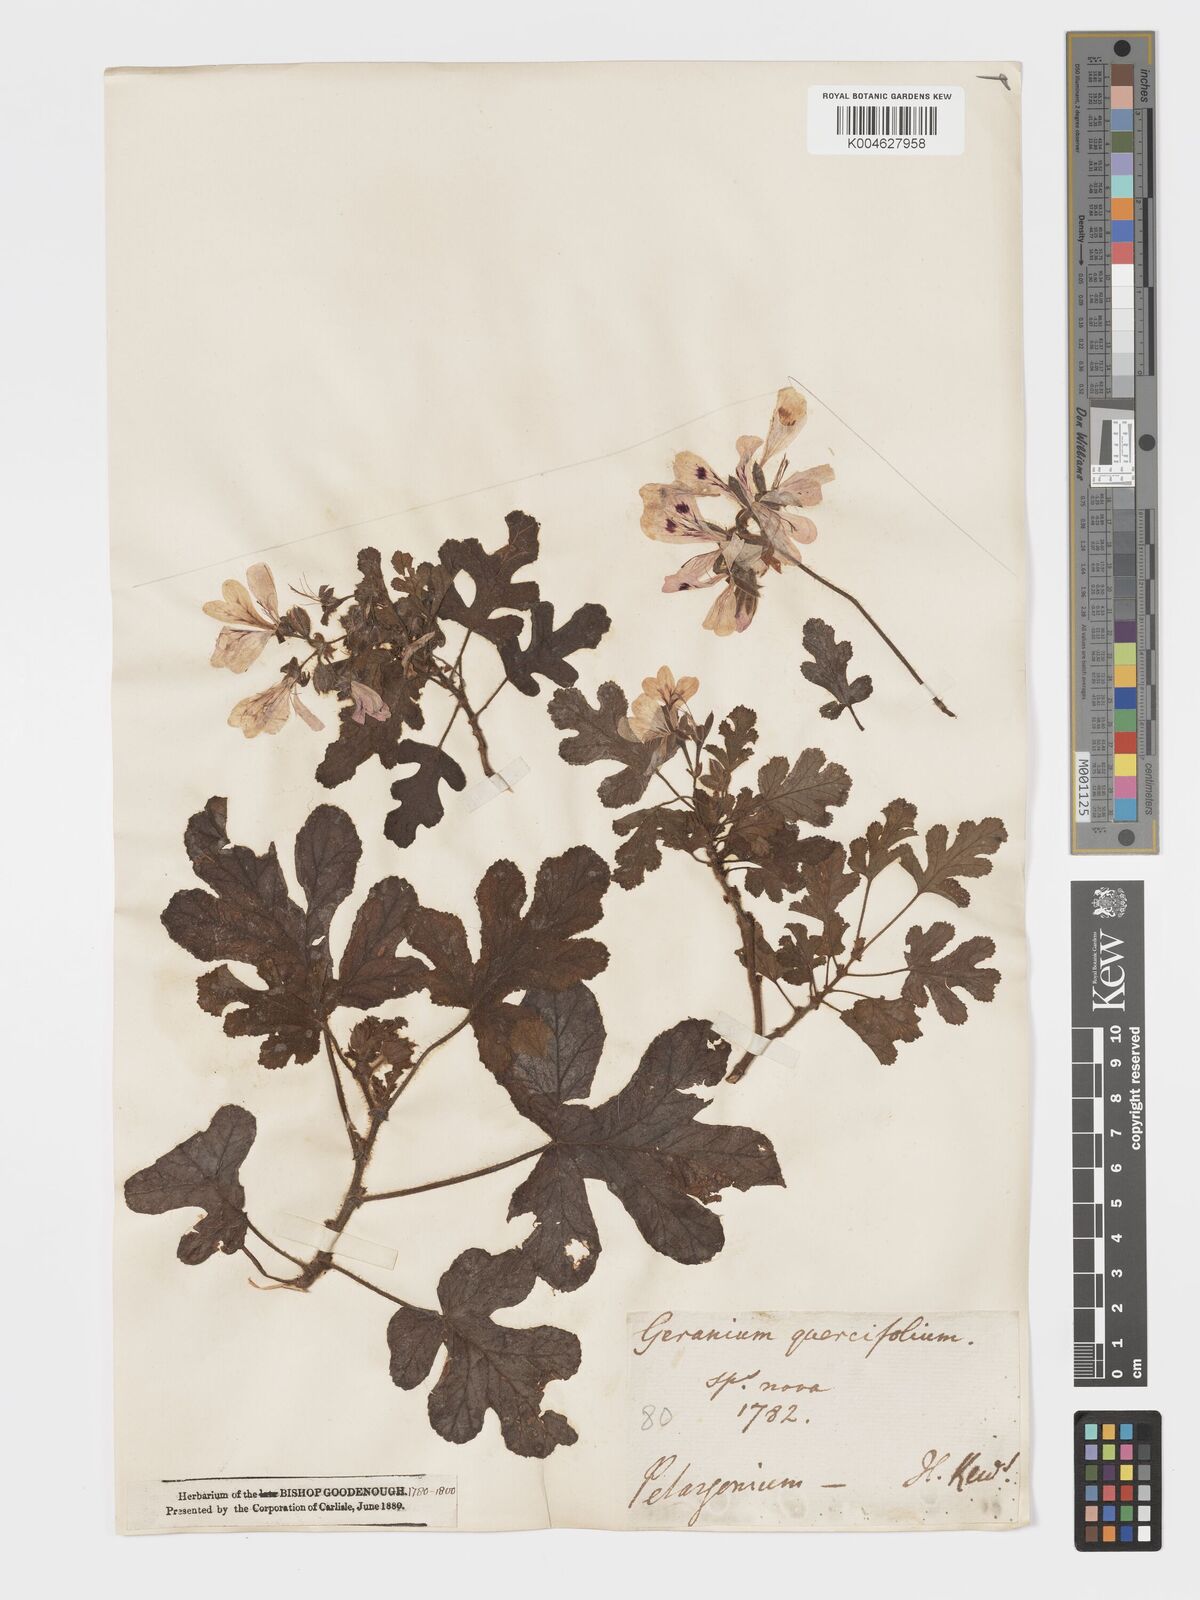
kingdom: Plantae
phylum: Tracheophyta
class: Magnoliopsida
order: Geraniales
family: Geraniaceae
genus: Pelargonium
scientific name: Pelargonium quercifolium
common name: Oakleaf geranium
